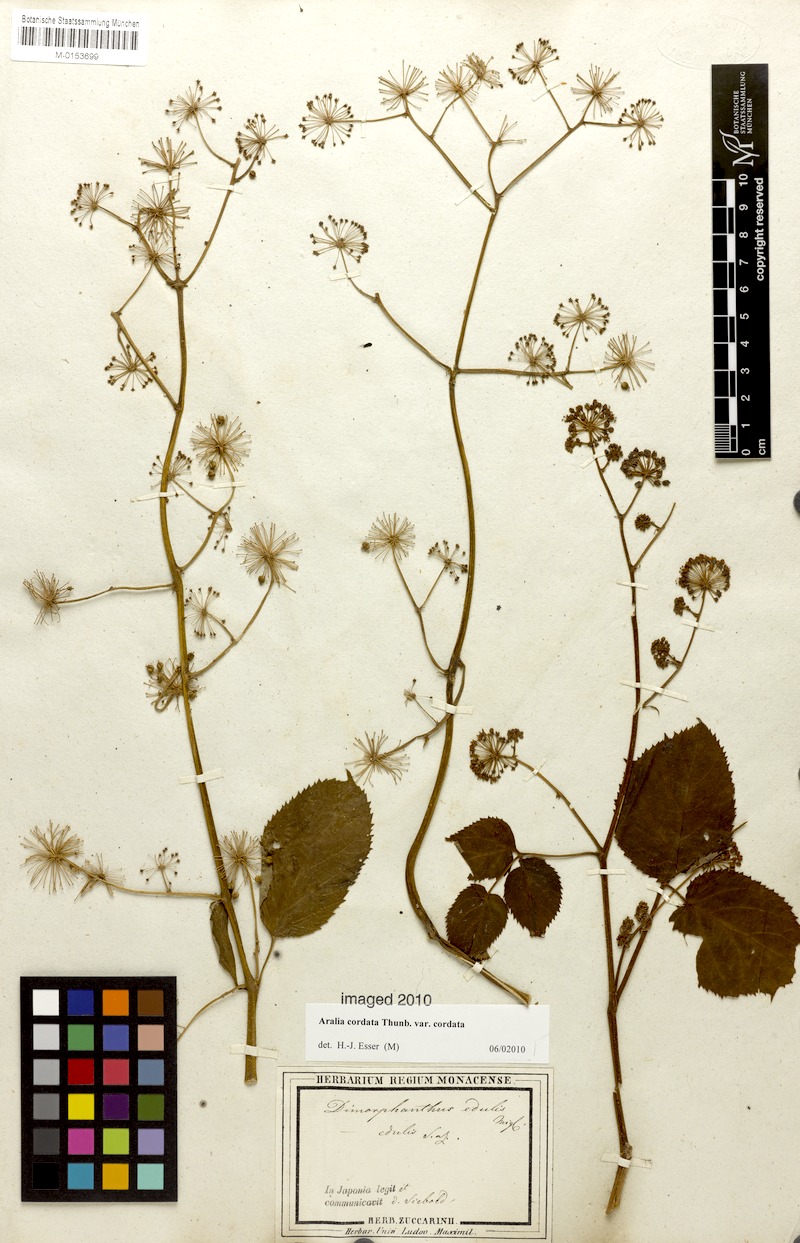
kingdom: Plantae
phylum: Tracheophyta
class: Magnoliopsida
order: Apiales
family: Araliaceae
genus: Aralia
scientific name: Aralia cordata
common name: Udo
